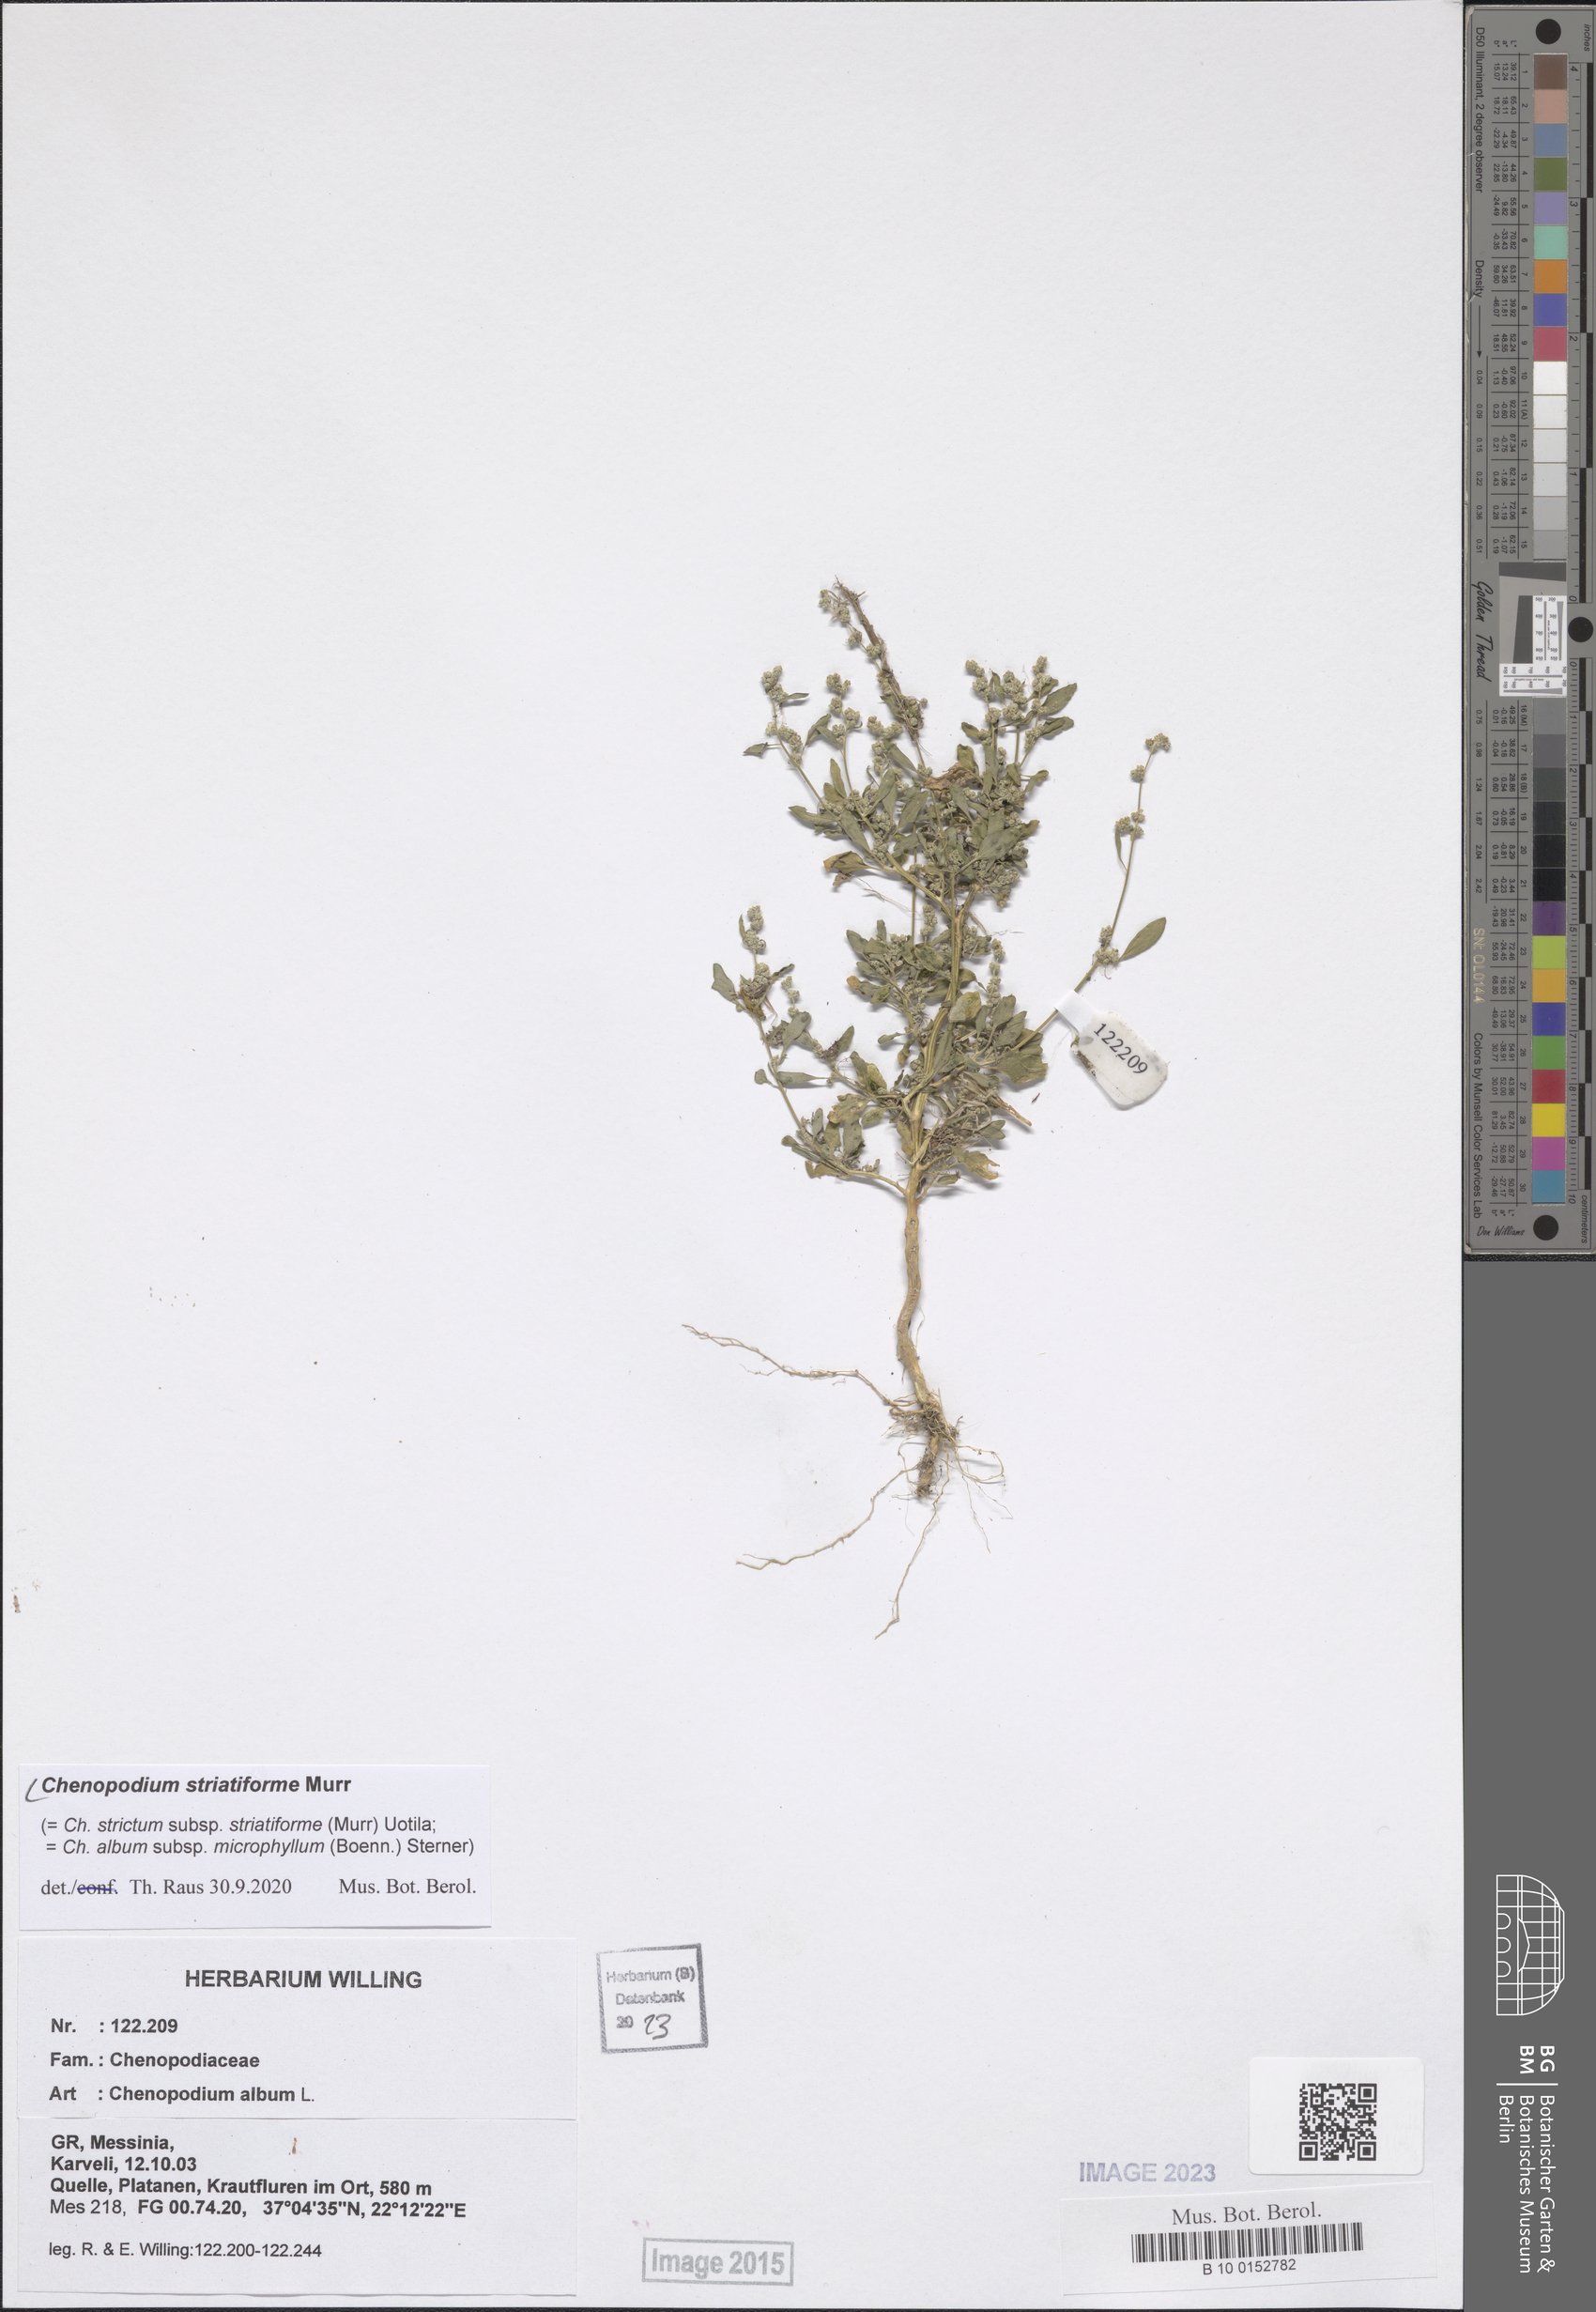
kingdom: Plantae
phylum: Tracheophyta
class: Magnoliopsida
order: Caryophyllales
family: Amaranthaceae
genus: Chenopodium
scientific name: Chenopodium striatiforme
